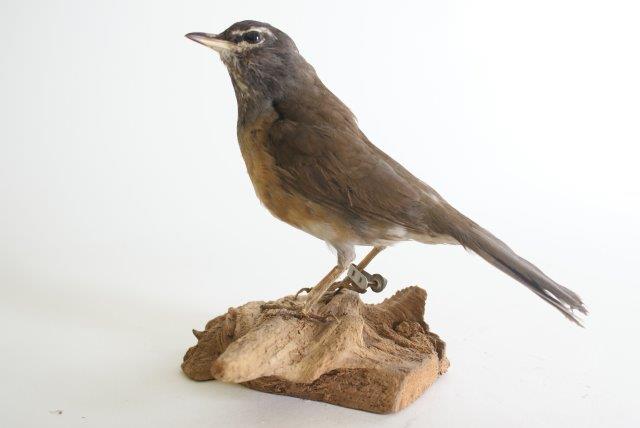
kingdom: Animalia
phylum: Chordata
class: Aves
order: Passeriformes
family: Turdidae
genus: Turdus
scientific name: Turdus obscurus
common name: Vale lijster
